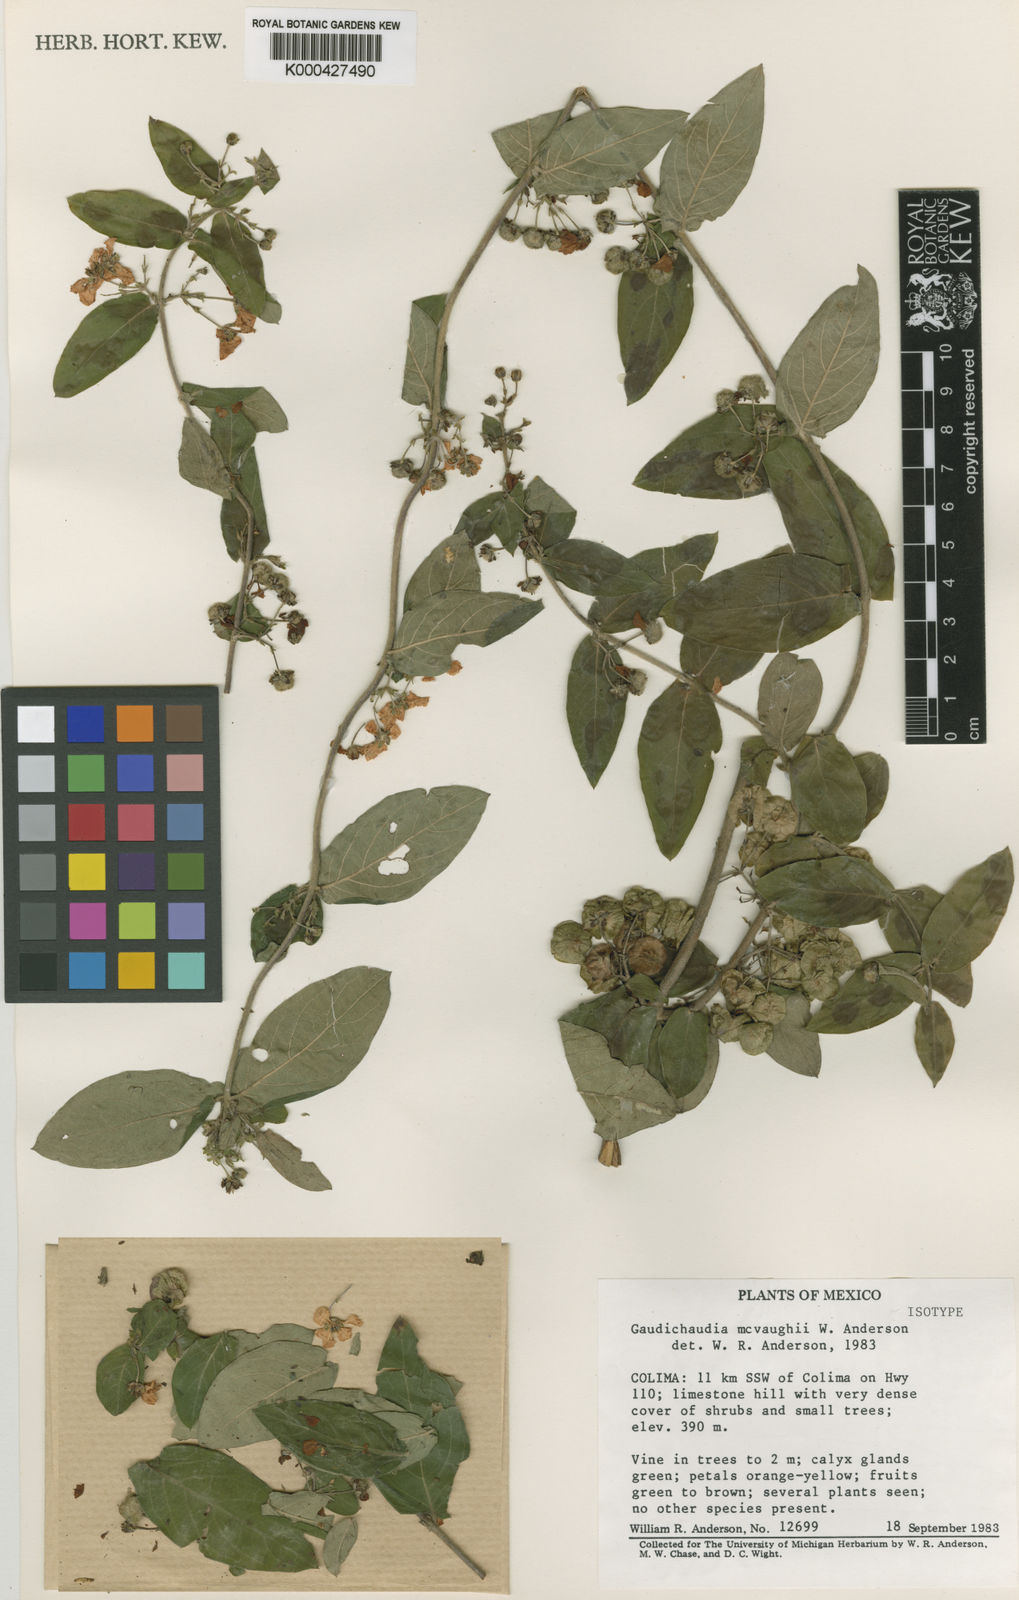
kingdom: Plantae
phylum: Tracheophyta
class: Magnoliopsida
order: Malpighiales
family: Malpighiaceae
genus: Gaudichaudia
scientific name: Gaudichaudia mcvaughii
